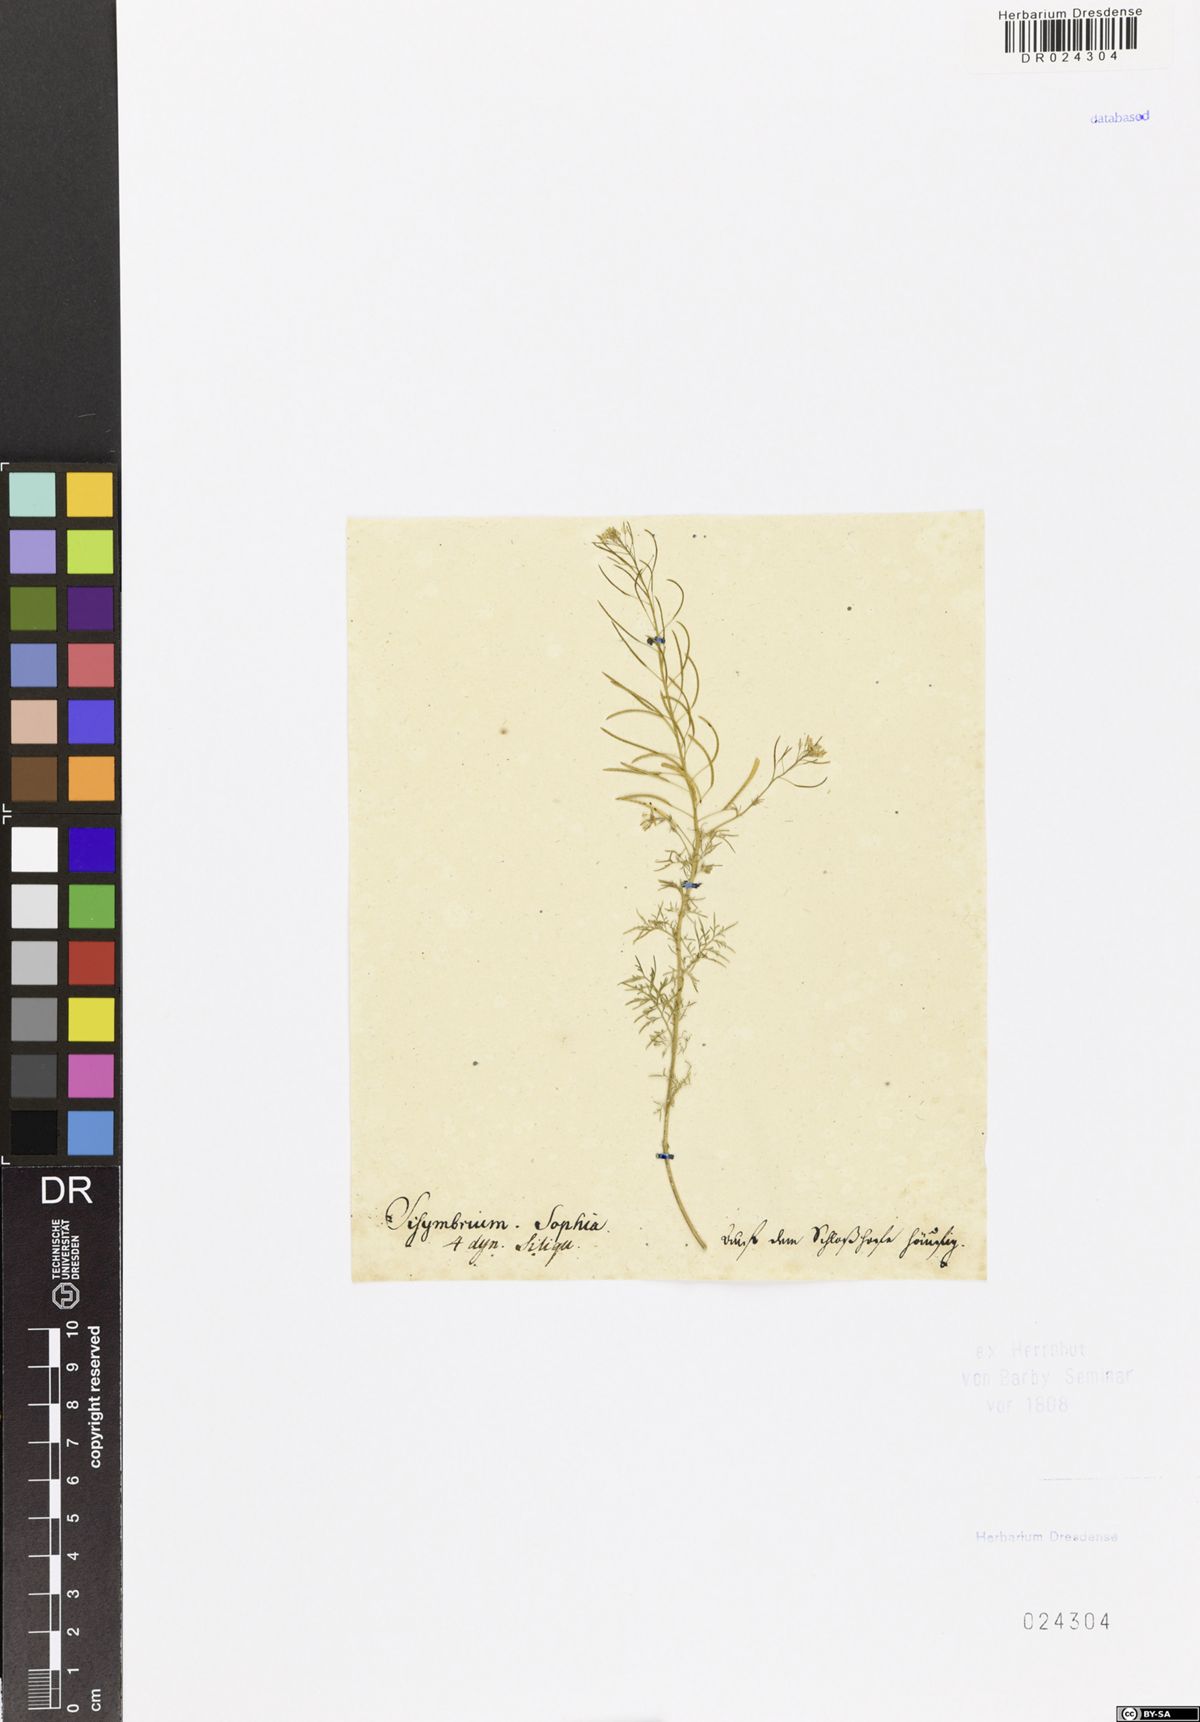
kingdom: Plantae
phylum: Tracheophyta
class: Magnoliopsida
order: Brassicales
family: Brassicaceae
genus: Descurainia
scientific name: Descurainia sophia
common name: Flixweed
